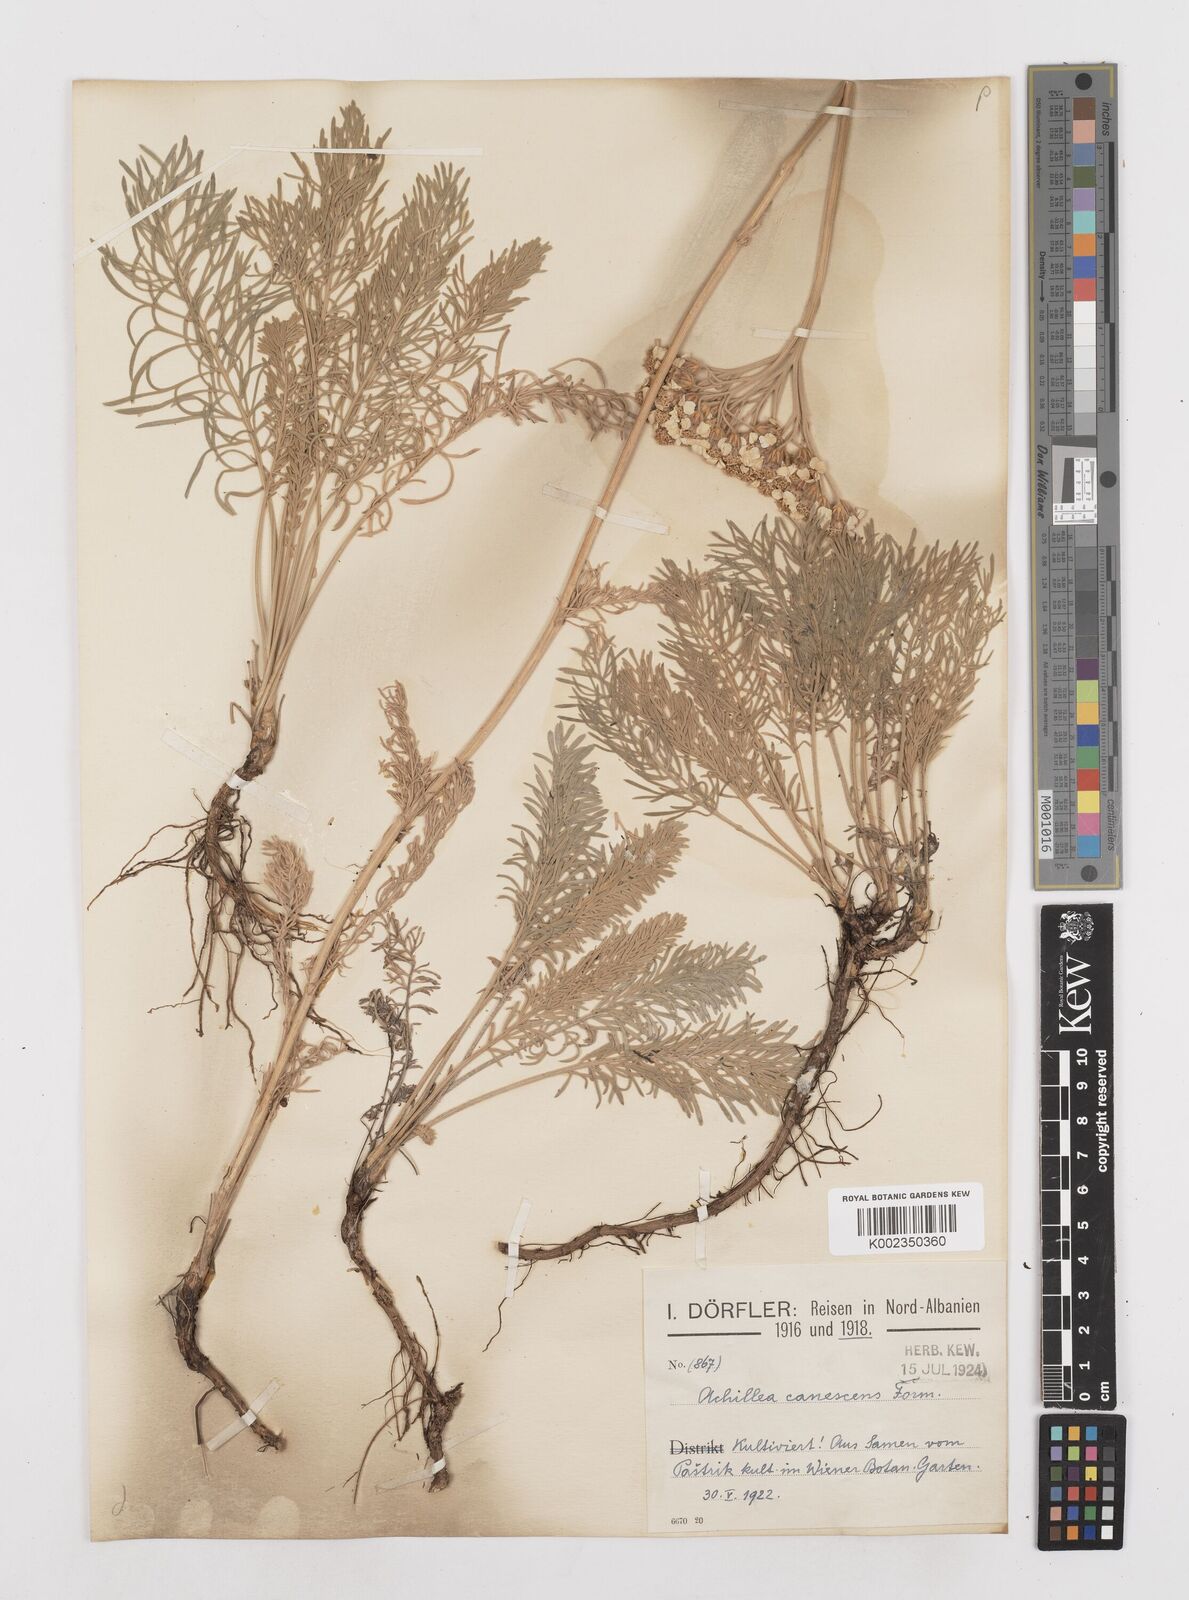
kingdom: Plantae
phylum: Tracheophyta
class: Magnoliopsida
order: Asterales
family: Asteraceae
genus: Achillea
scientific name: Achillea fraasii
